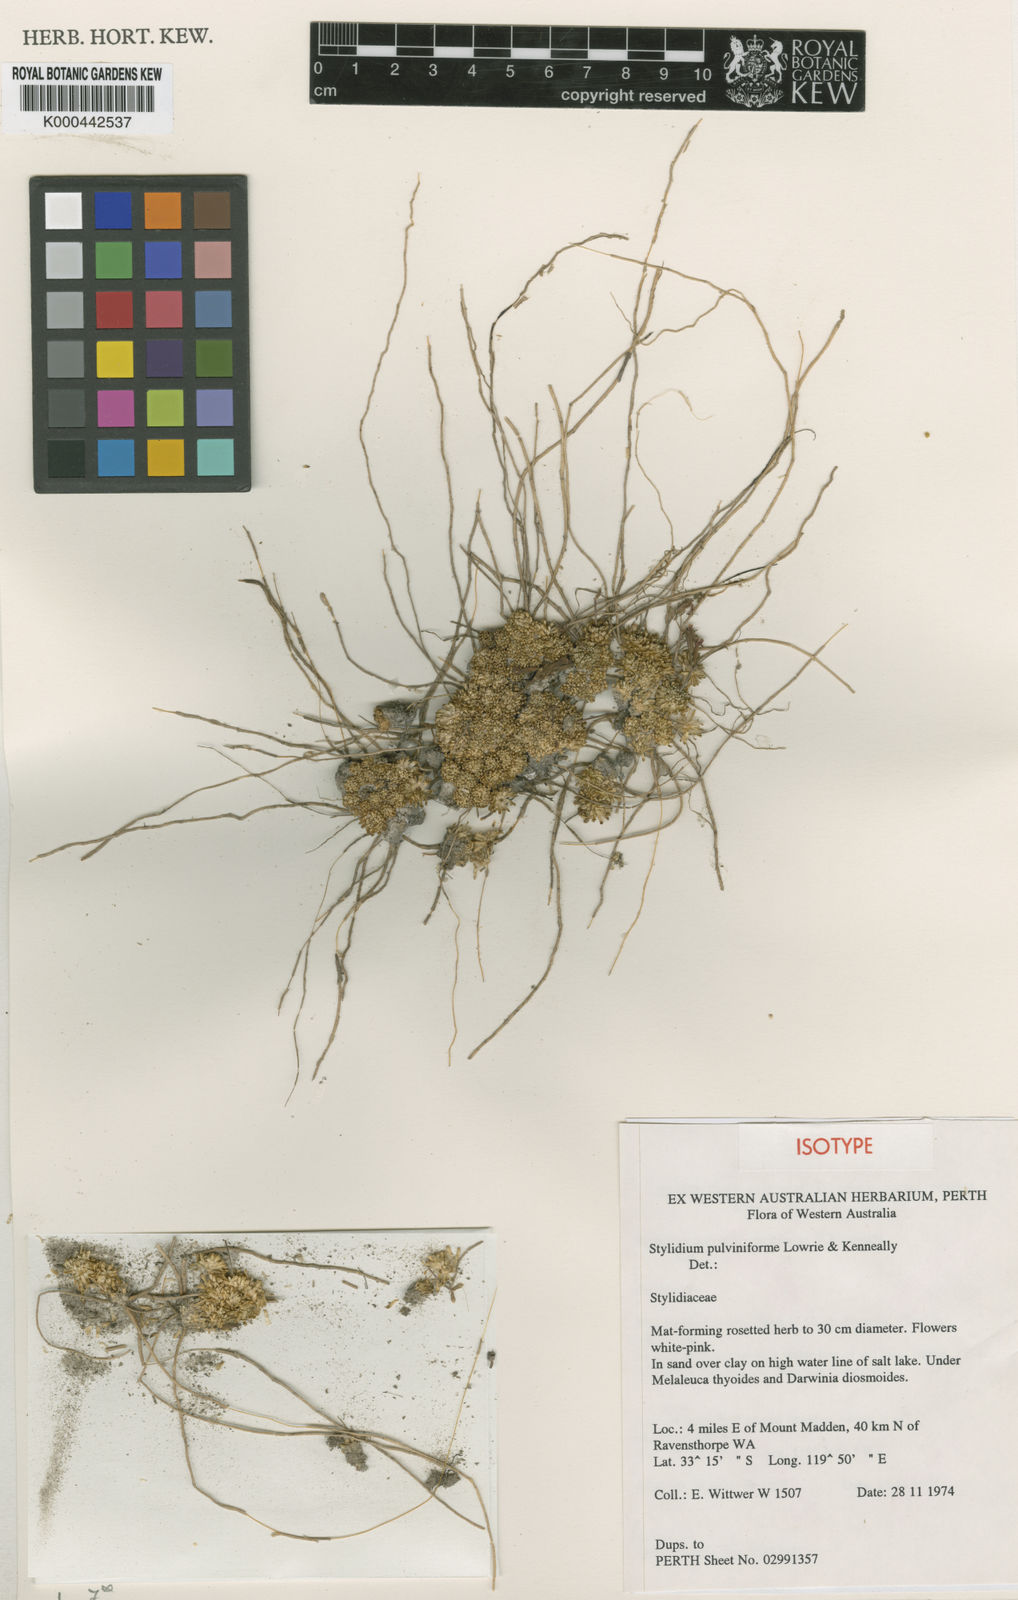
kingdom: Plantae
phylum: Tracheophyta
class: Magnoliopsida
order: Asterales
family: Stylidiaceae
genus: Stylidium
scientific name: Stylidium
